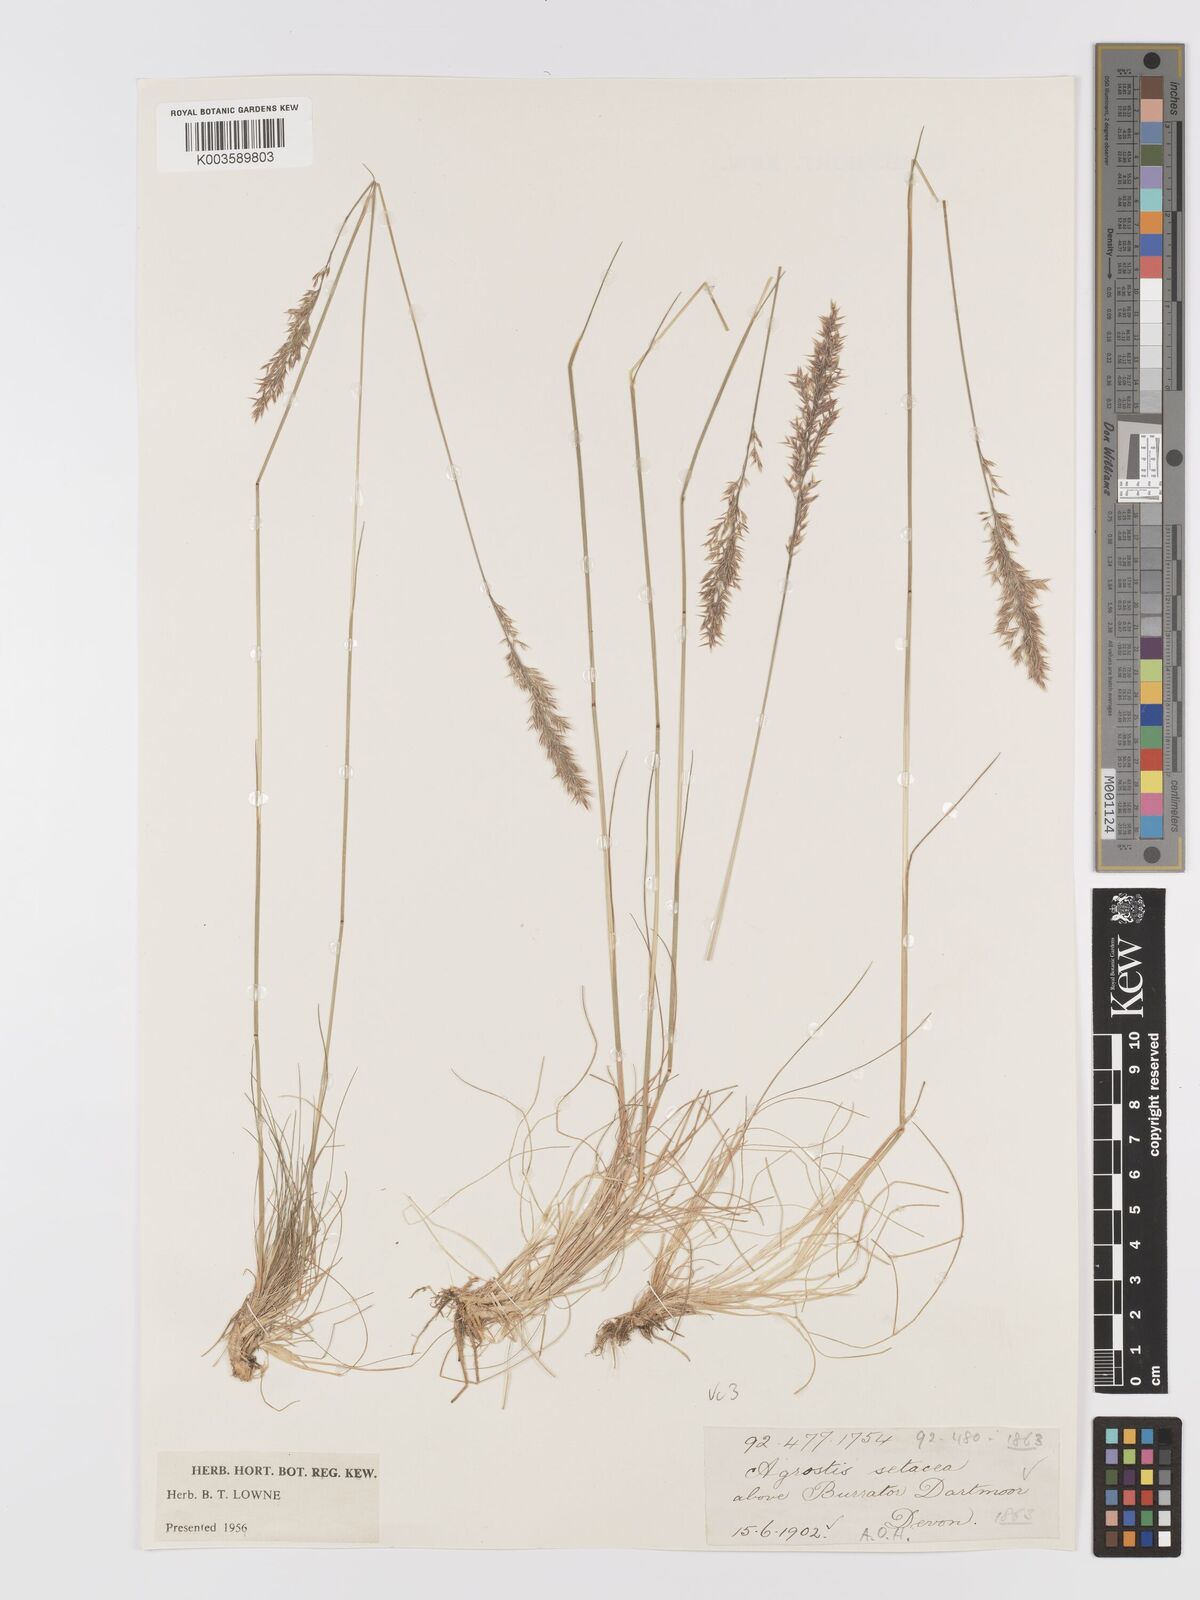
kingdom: Plantae
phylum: Tracheophyta
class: Liliopsida
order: Poales
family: Poaceae
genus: Alpagrostis
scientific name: Alpagrostis setacea
